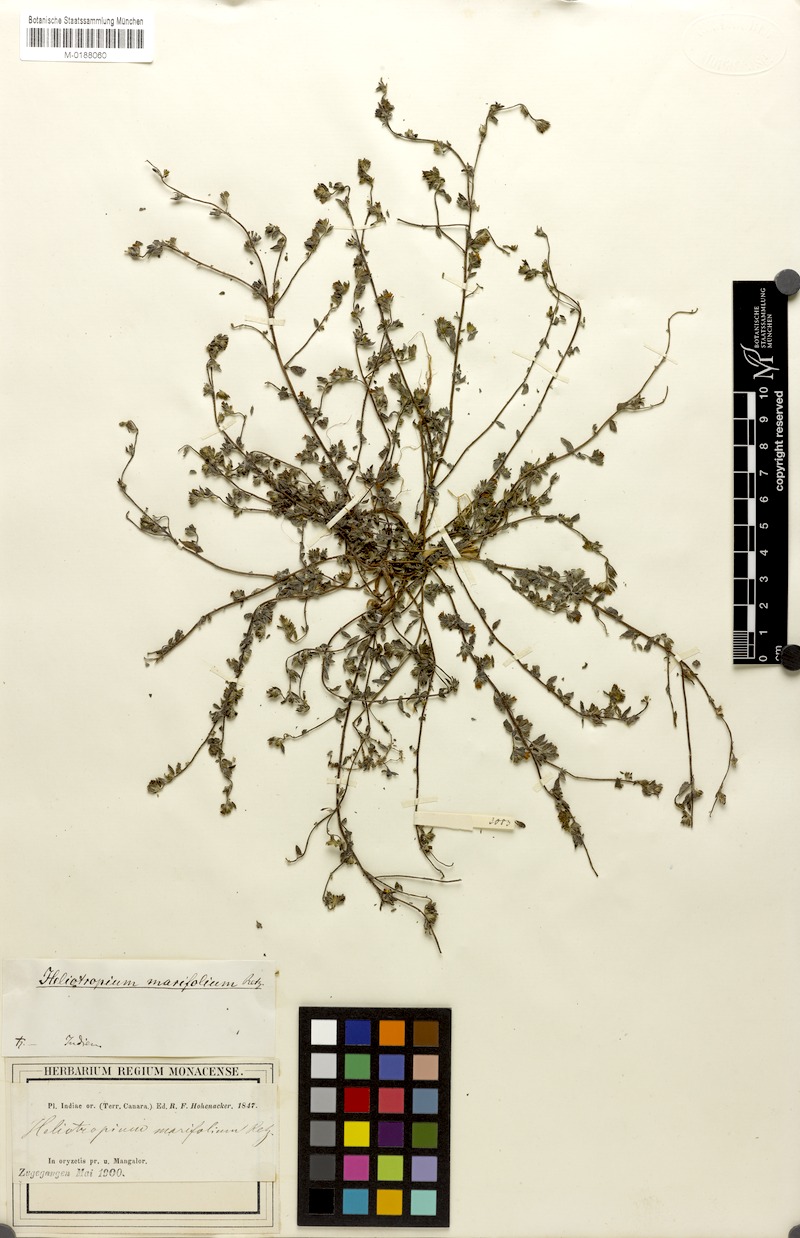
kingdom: Plantae
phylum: Tracheophyta
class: Magnoliopsida
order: Boraginales
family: Heliotropiaceae
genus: Euploca
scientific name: Euploca marifolia
